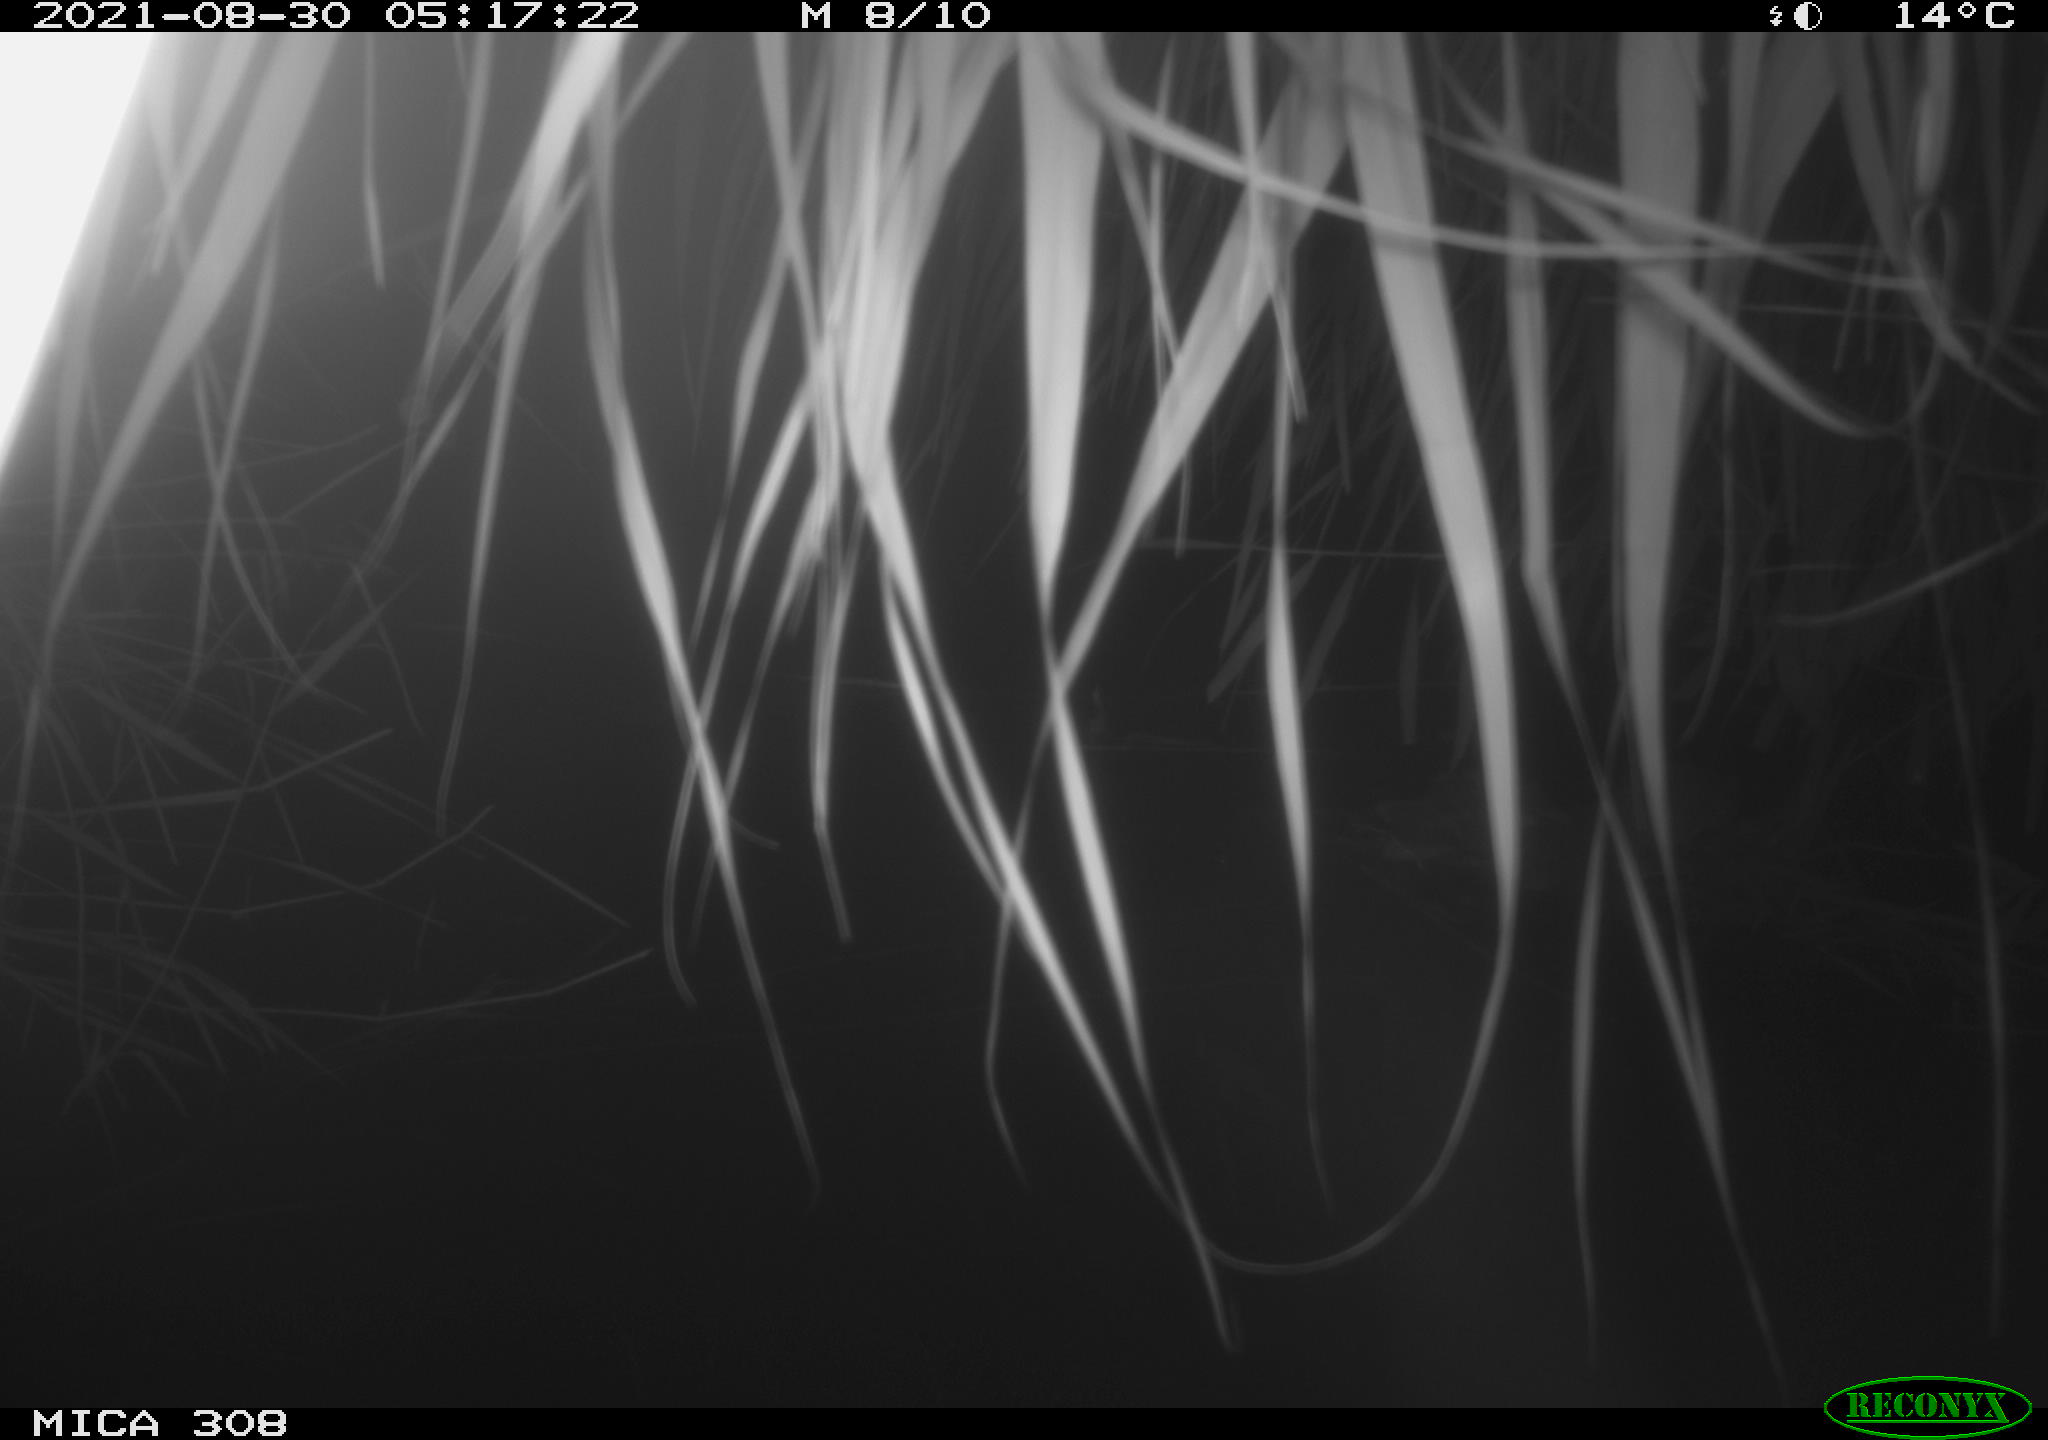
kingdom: Animalia
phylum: Chordata
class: Mammalia
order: Rodentia
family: Muridae
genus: Rattus
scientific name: Rattus norvegicus
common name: Brown rat
